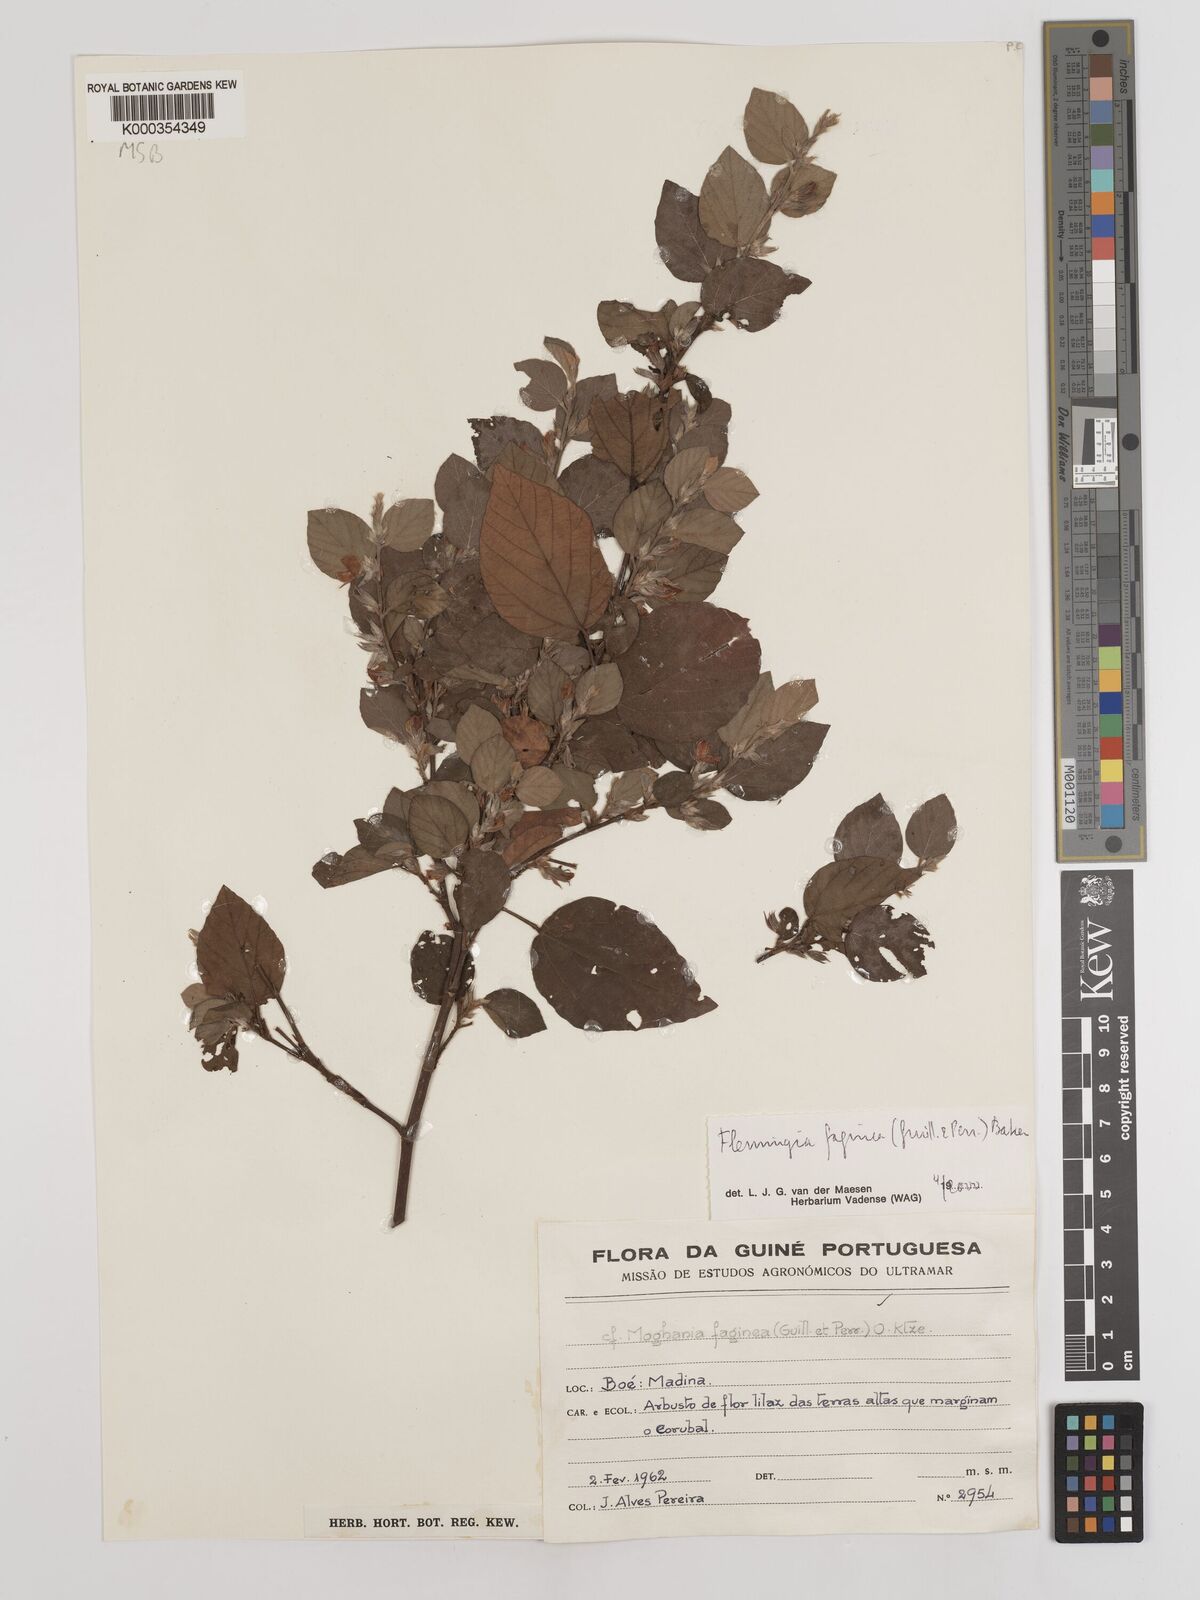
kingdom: Plantae
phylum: Tracheophyta
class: Magnoliopsida
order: Fabales
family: Fabaceae
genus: Flemingia
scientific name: Flemingia faginea
